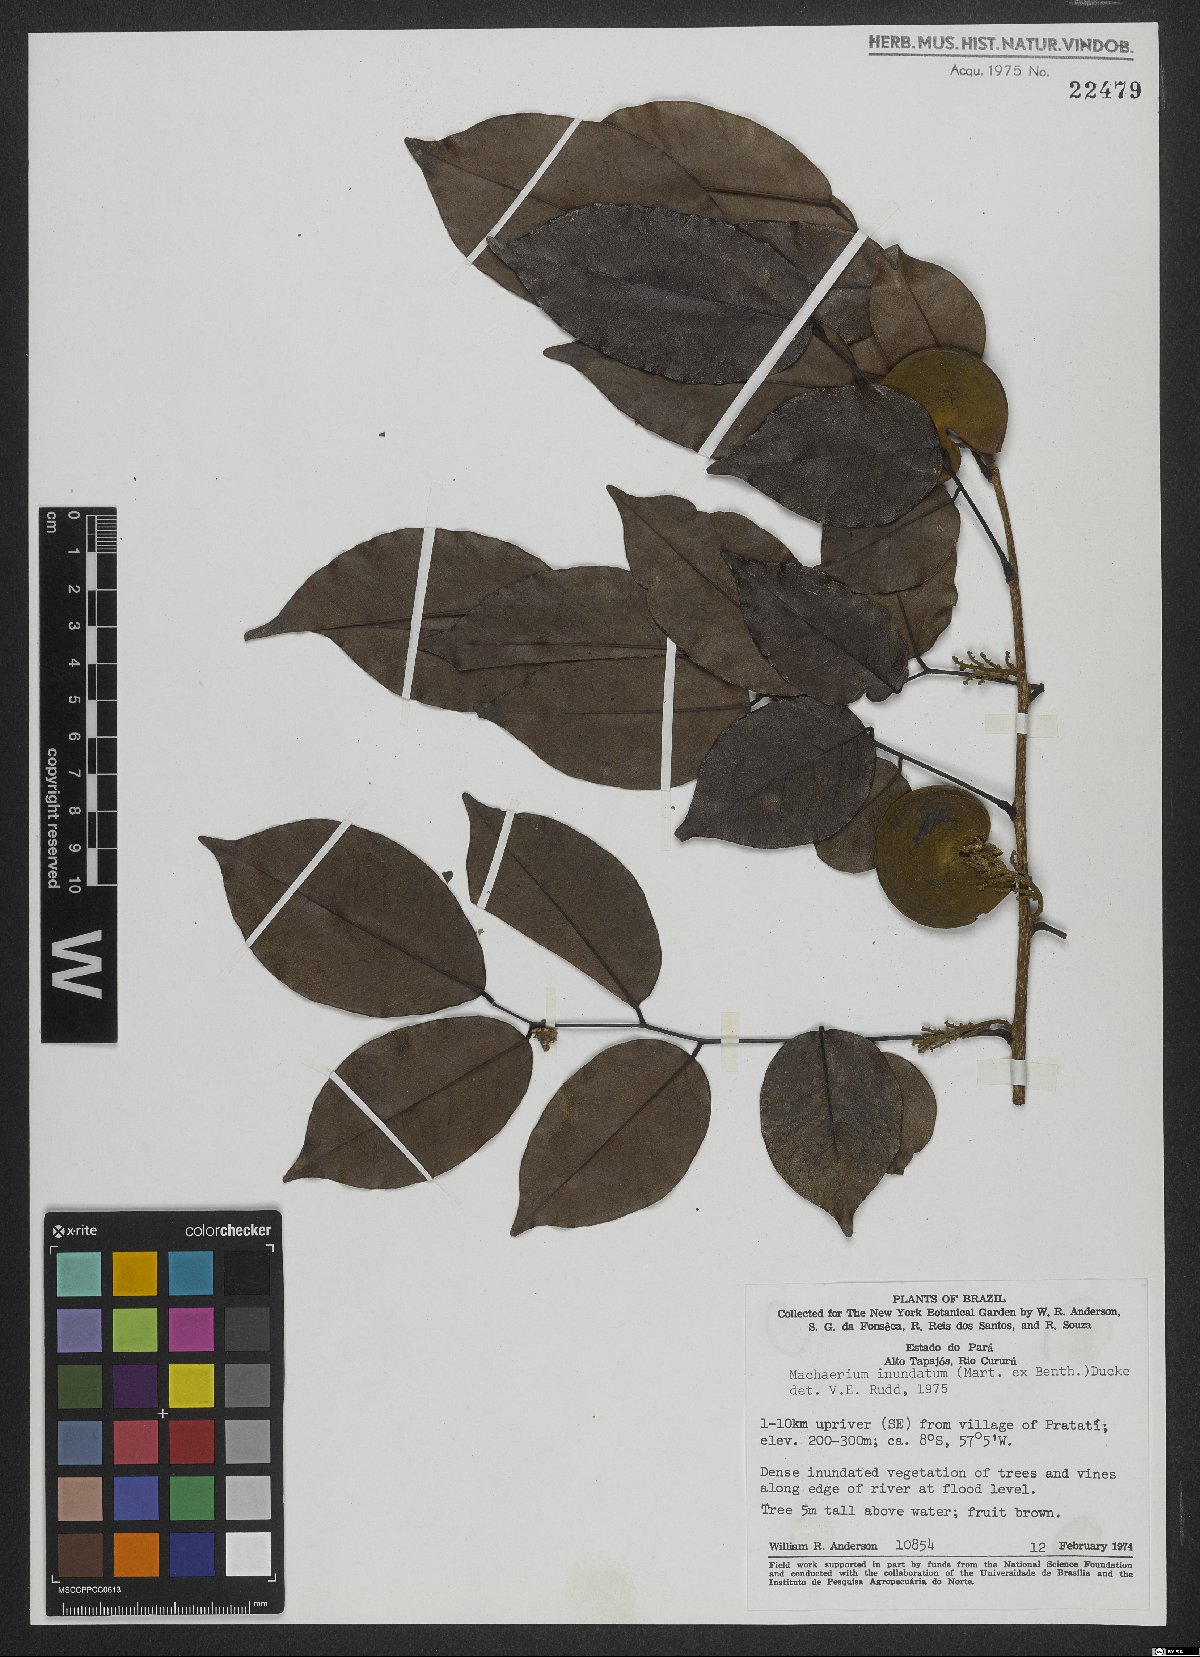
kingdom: Plantae
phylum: Tracheophyta
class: Magnoliopsida
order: Fabales
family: Fabaceae
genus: Machaerium
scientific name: Machaerium inundatum
